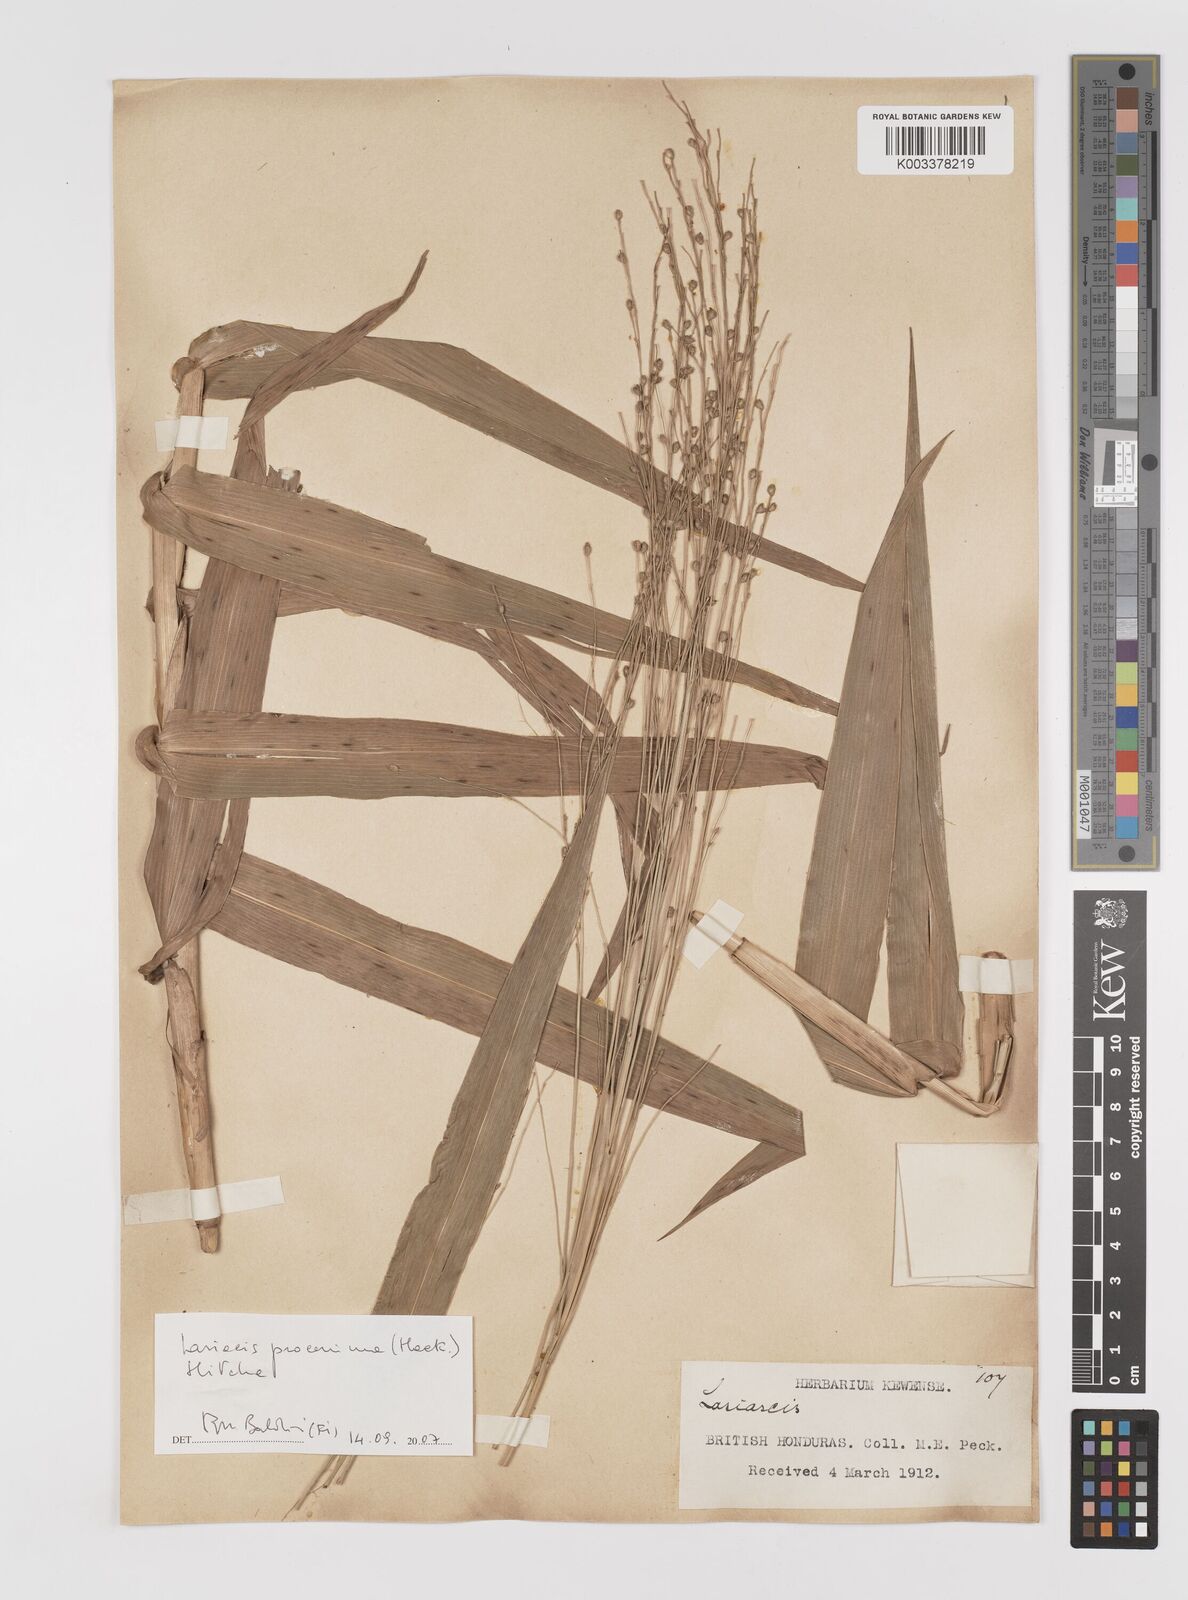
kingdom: Plantae
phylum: Tracheophyta
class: Liliopsida
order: Poales
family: Poaceae
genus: Lasiacis
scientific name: Lasiacis procerrima
